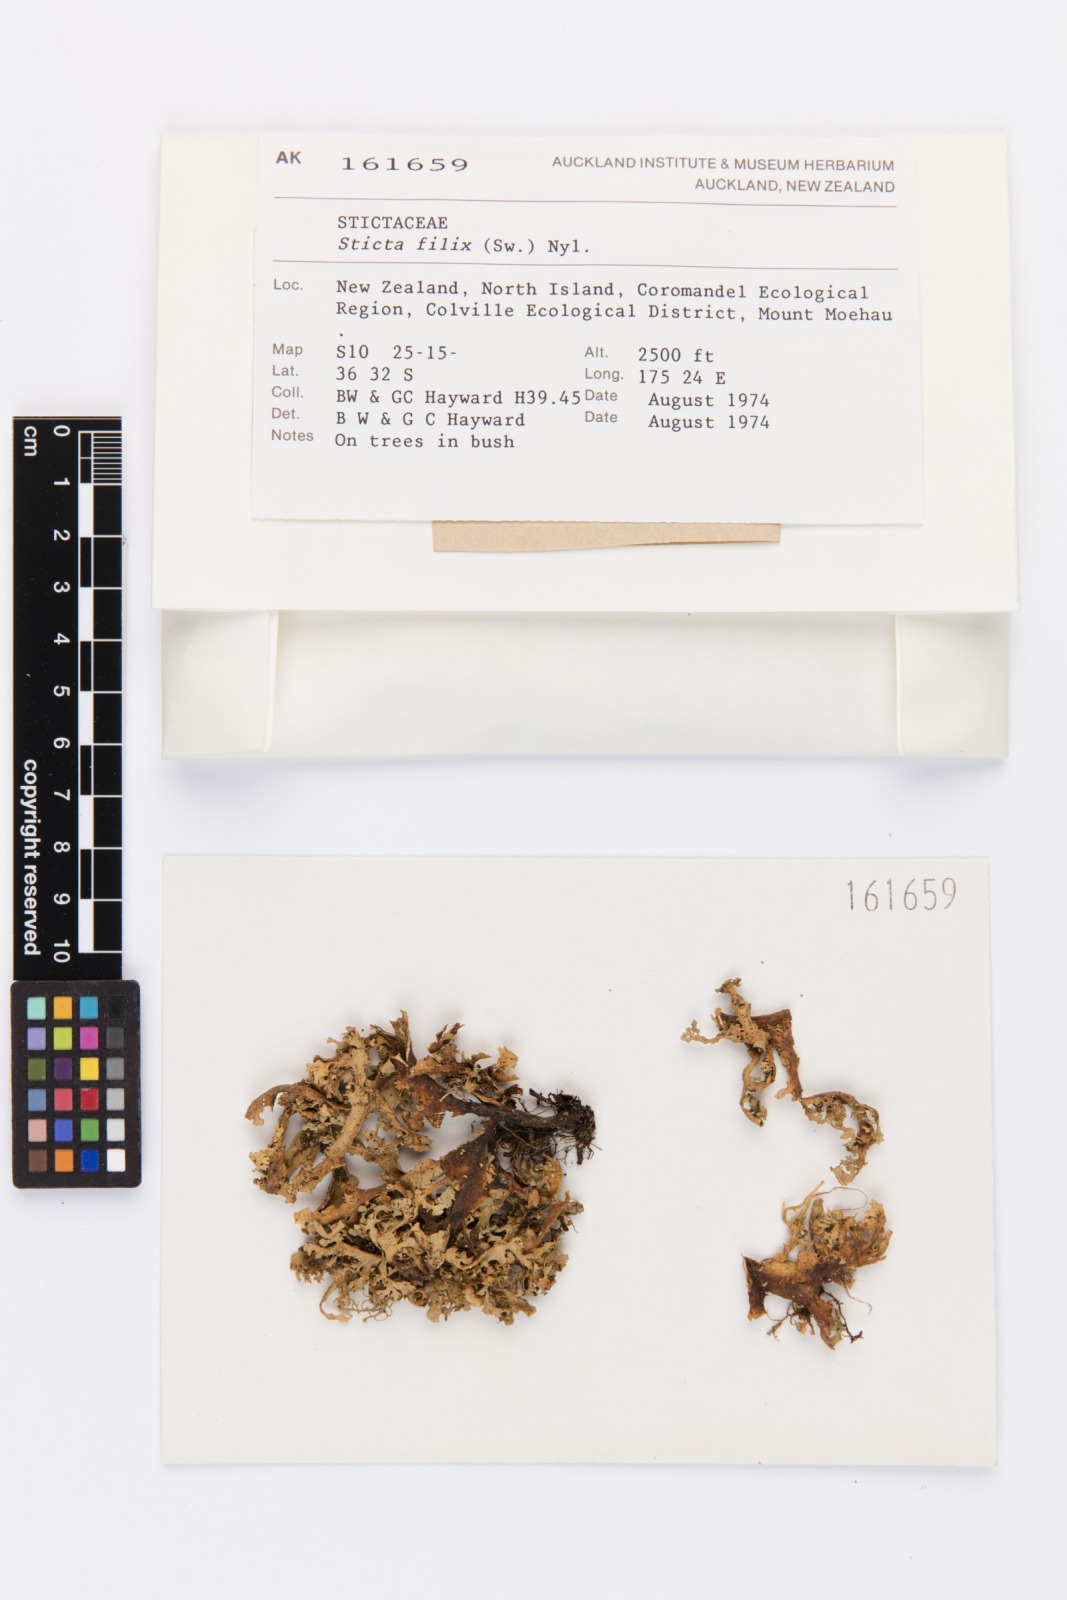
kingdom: Fungi
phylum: Ascomycota
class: Lecanoromycetes
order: Peltigerales
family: Lobariaceae
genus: Sticta
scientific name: Sticta filix
